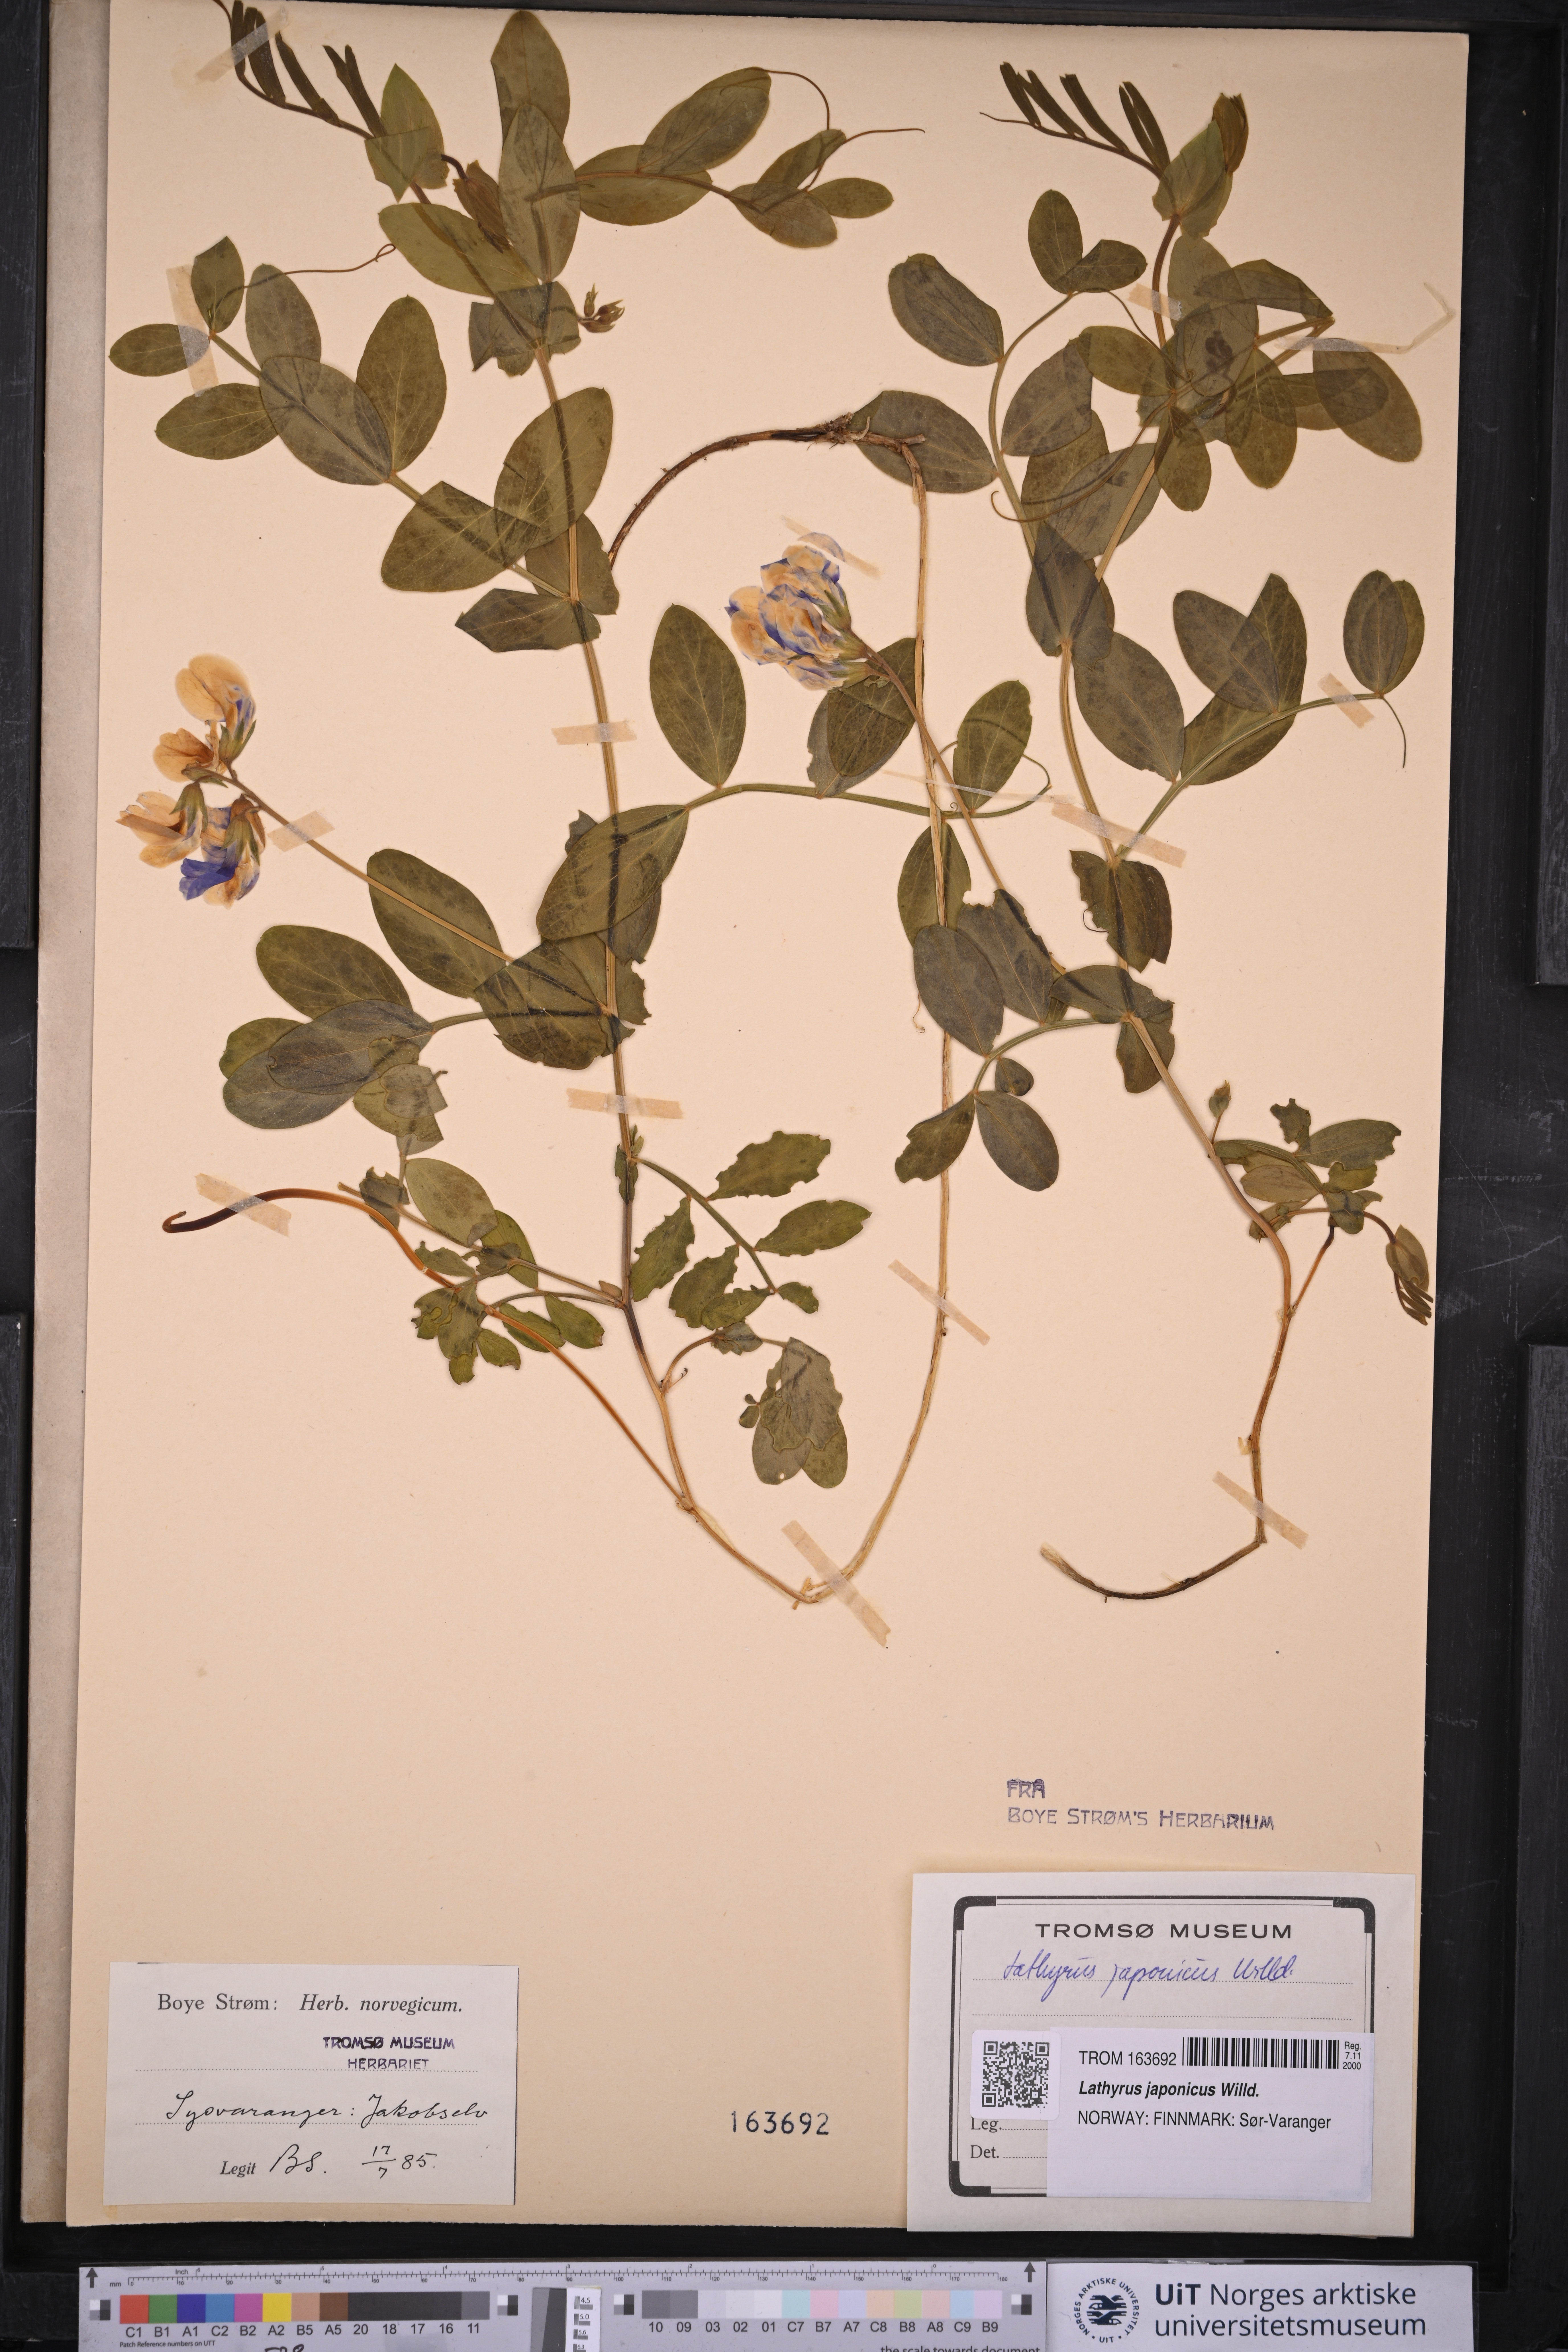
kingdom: Plantae
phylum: Tracheophyta
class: Magnoliopsida
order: Fabales
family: Fabaceae
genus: Lathyrus
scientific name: Lathyrus japonicus
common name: Sea pea
